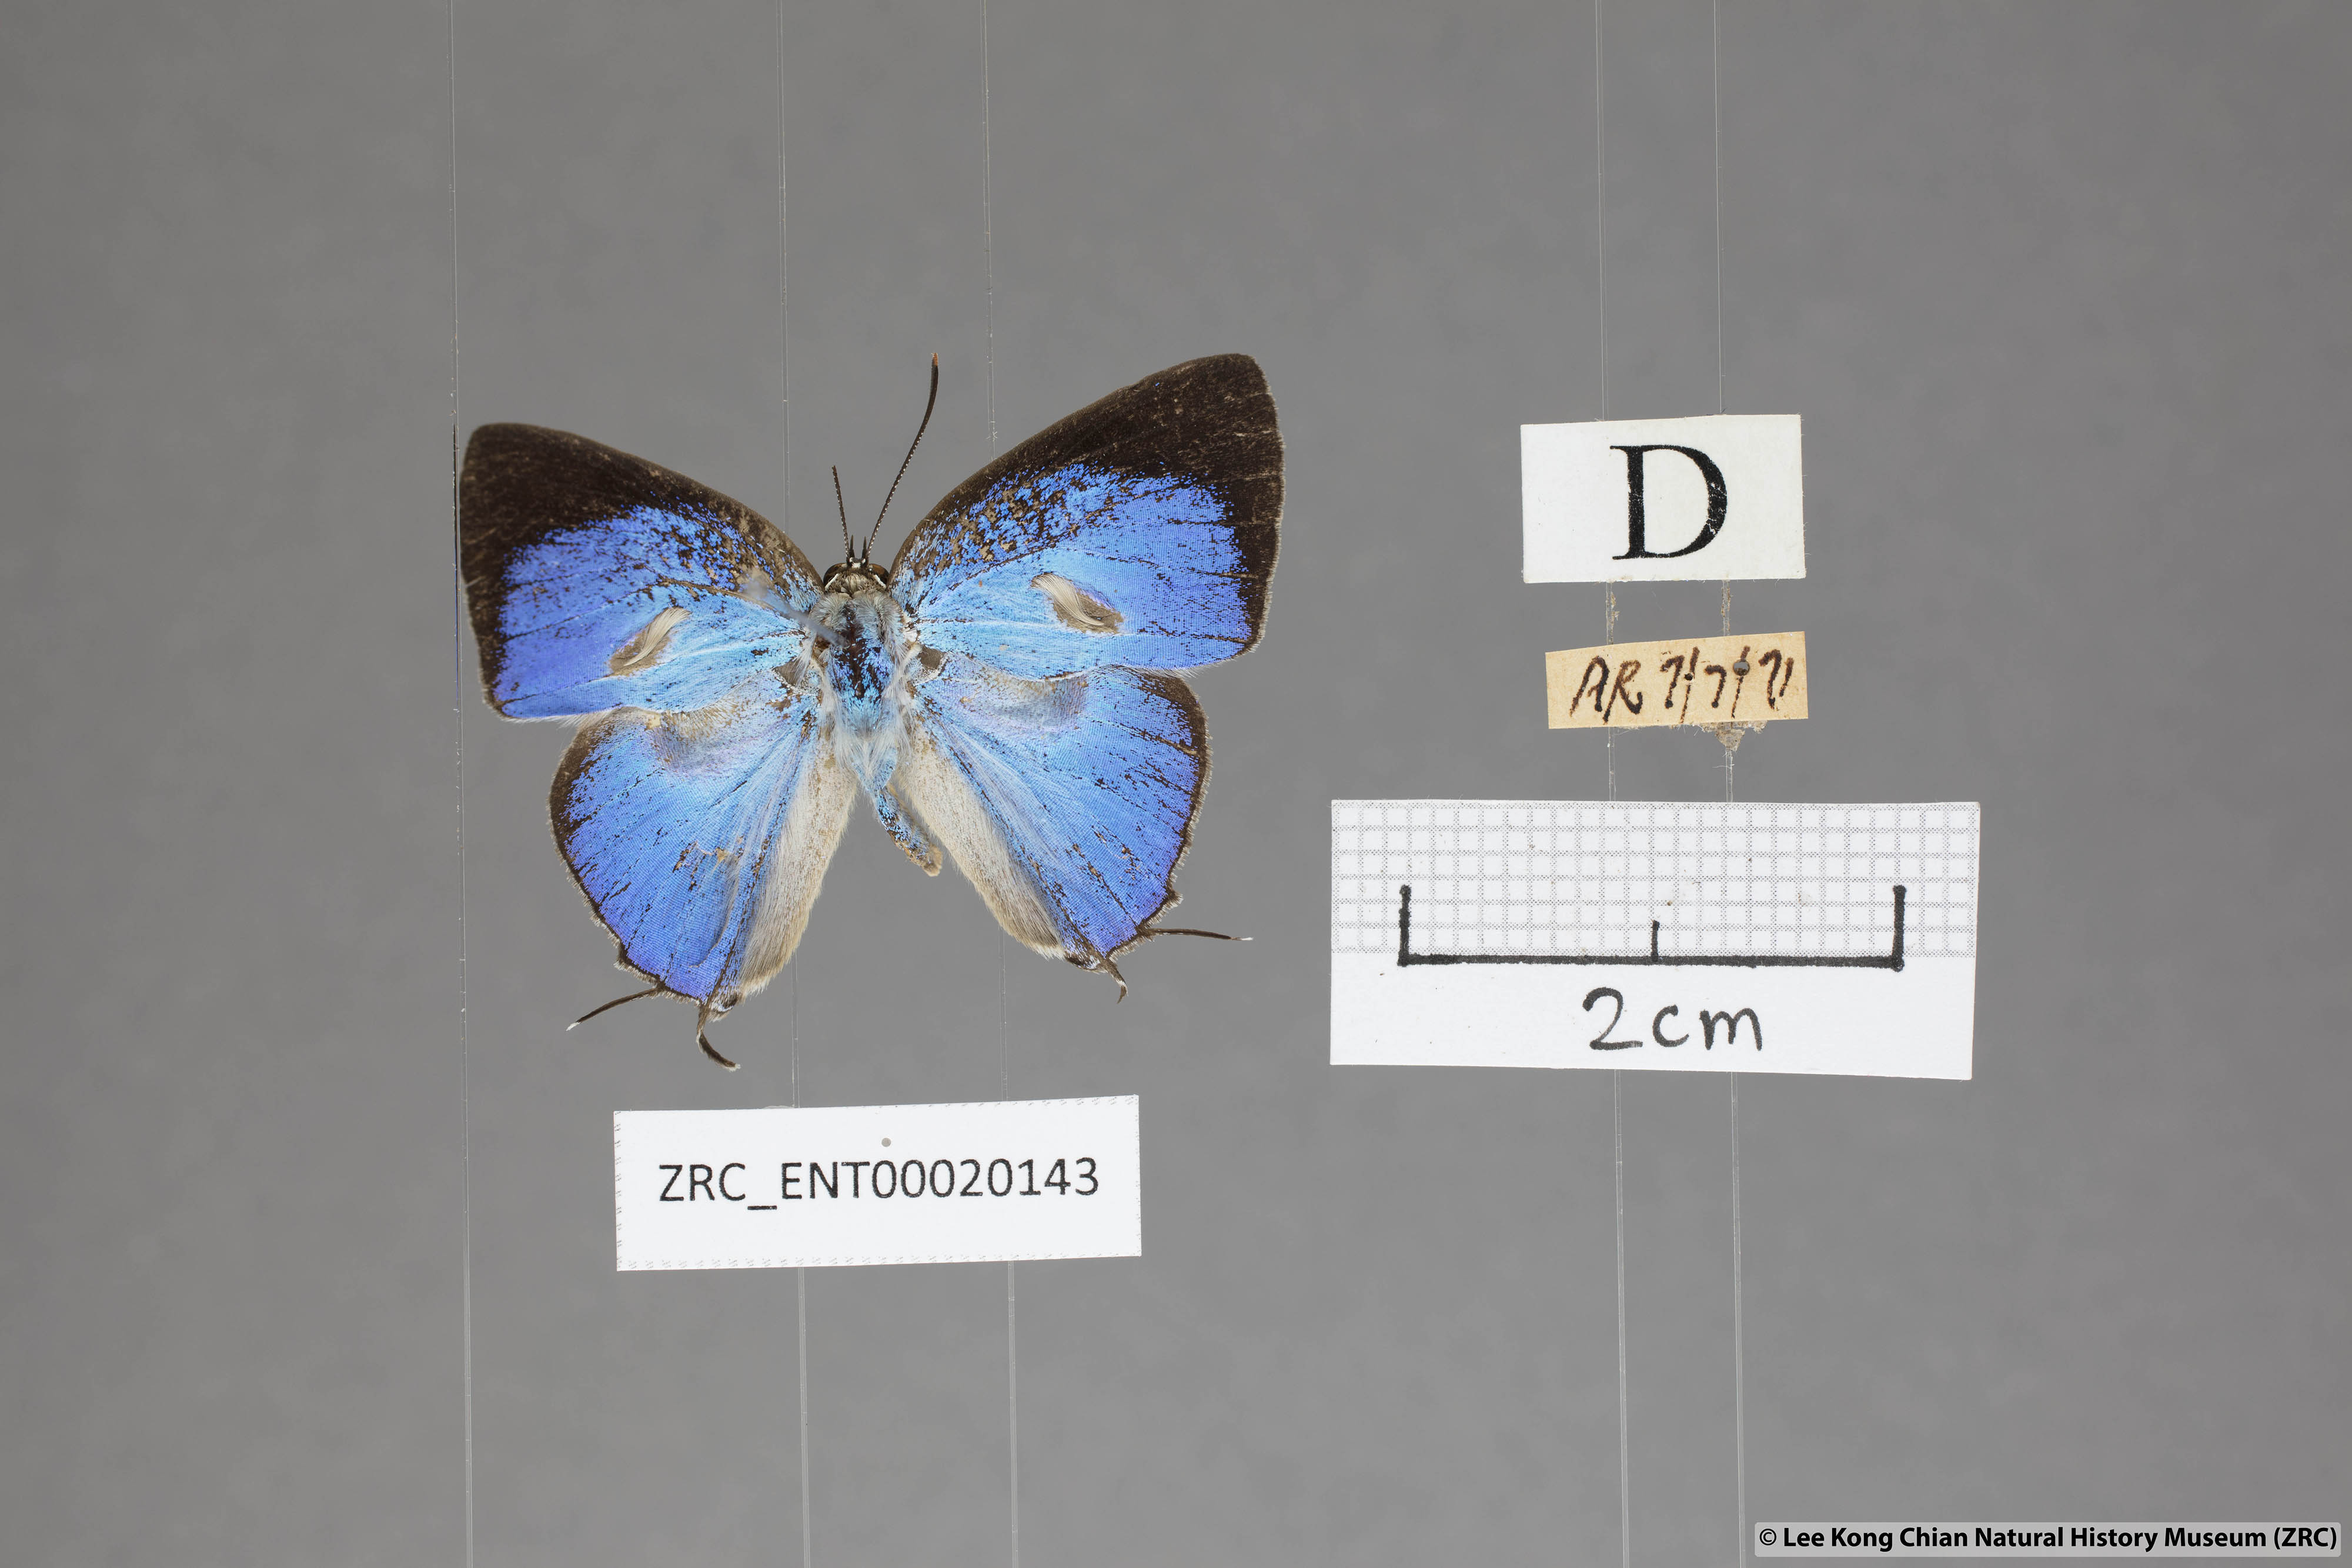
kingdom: Animalia
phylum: Arthropoda
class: Insecta
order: Lepidoptera
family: Lycaenidae
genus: Dacalana
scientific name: Dacalana sinhara
